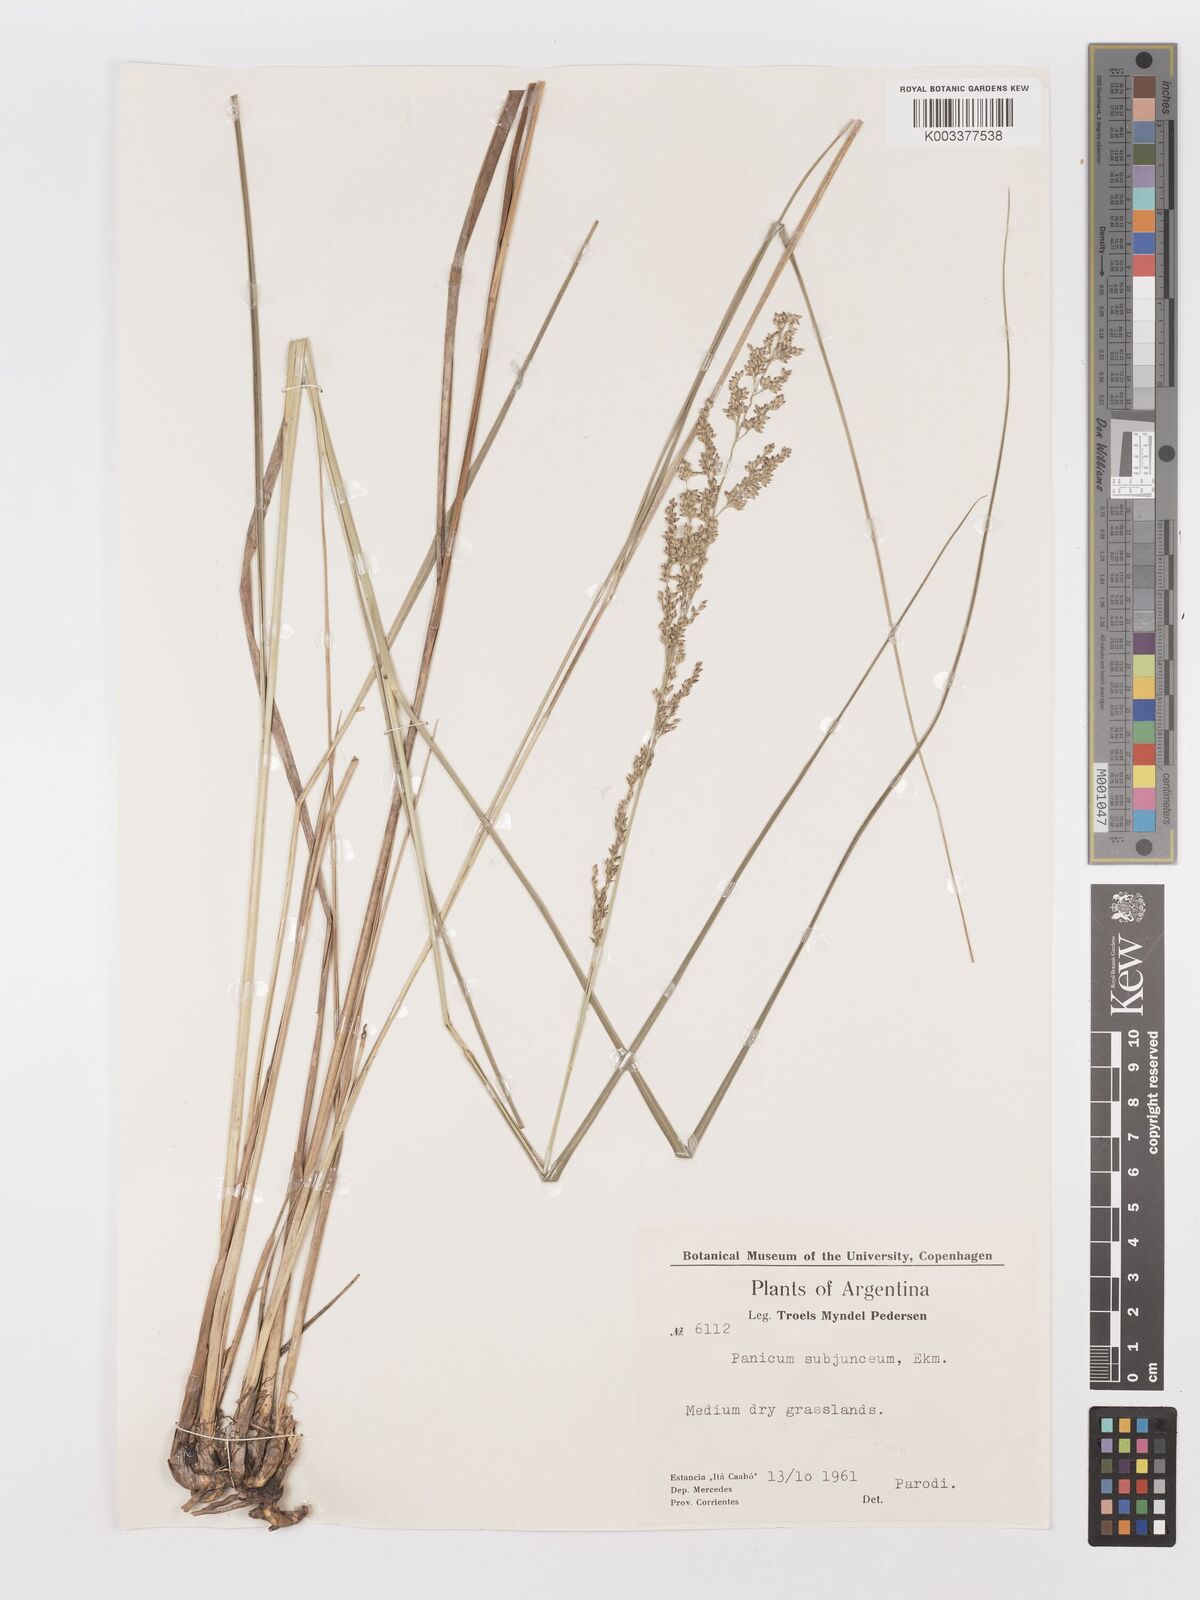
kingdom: Plantae
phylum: Tracheophyta
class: Liliopsida
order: Poales
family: Poaceae
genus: Panicum
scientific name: Panicum glabripes
